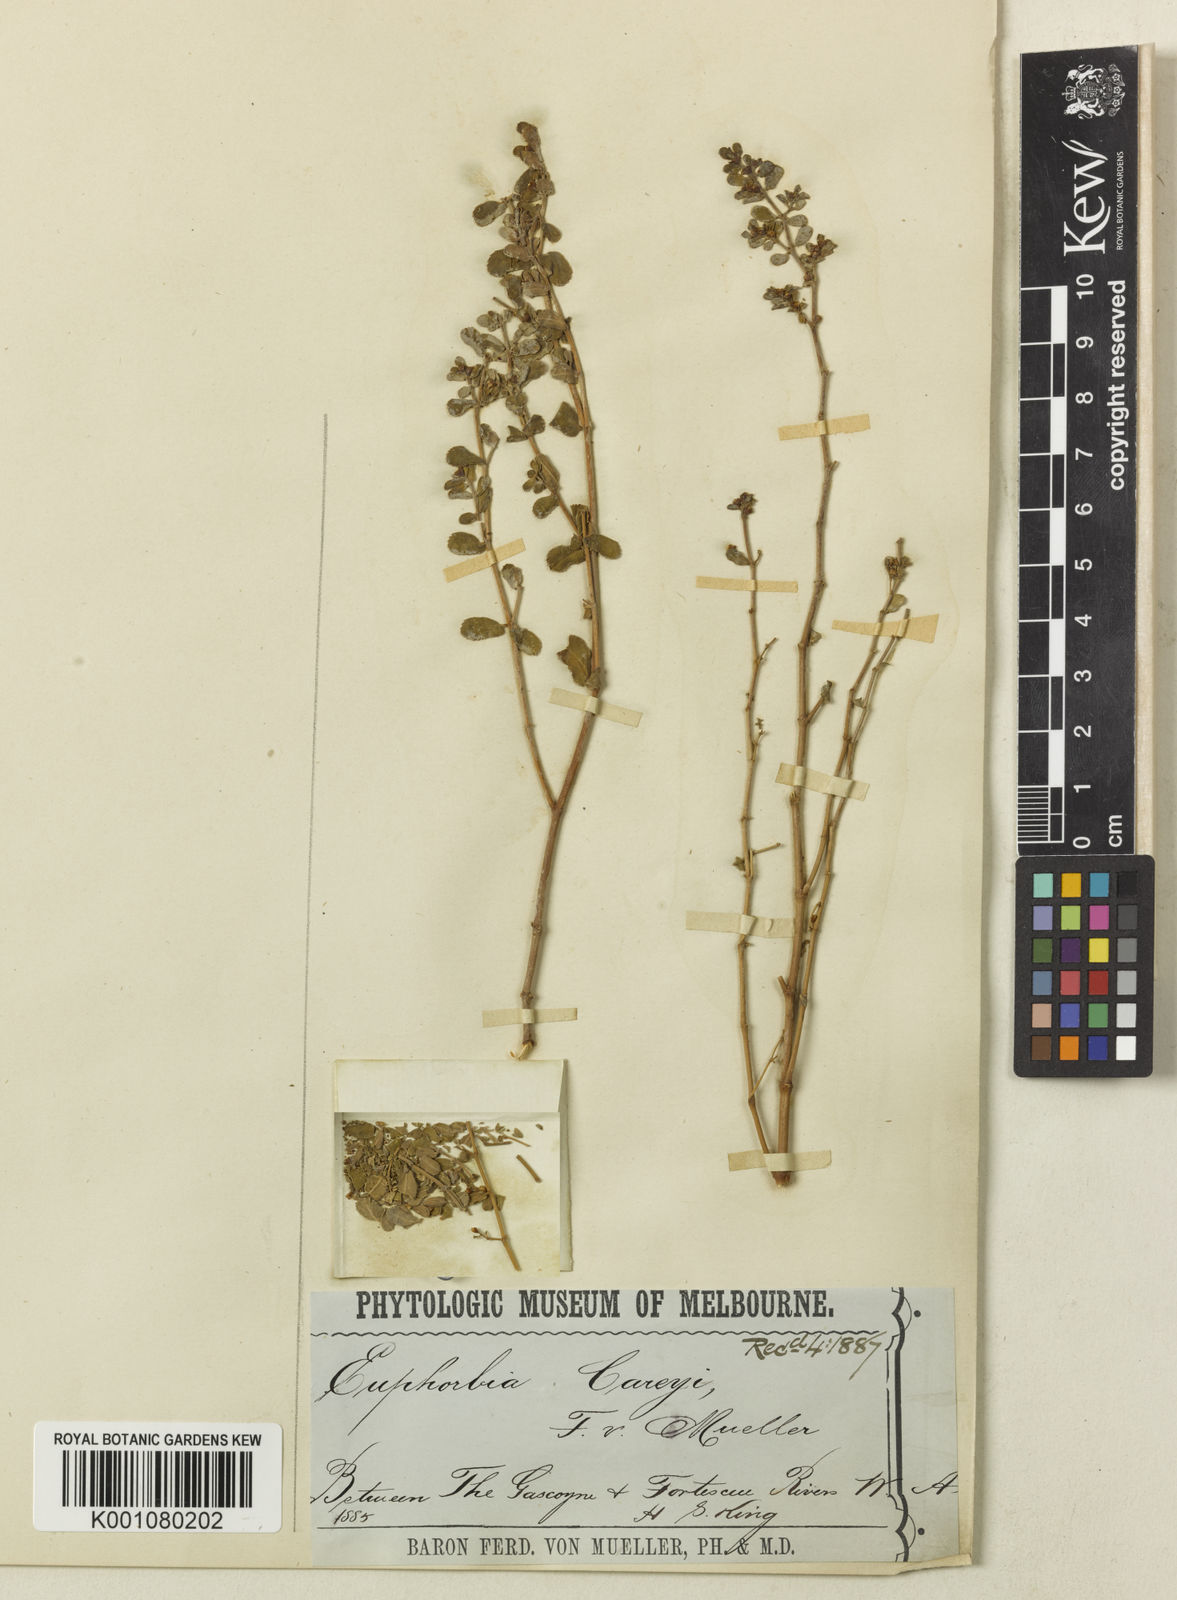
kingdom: Plantae
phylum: Tracheophyta
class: Magnoliopsida
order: Malpighiales
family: Euphorbiaceae
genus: Euphorbia
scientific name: Euphorbia careyi
